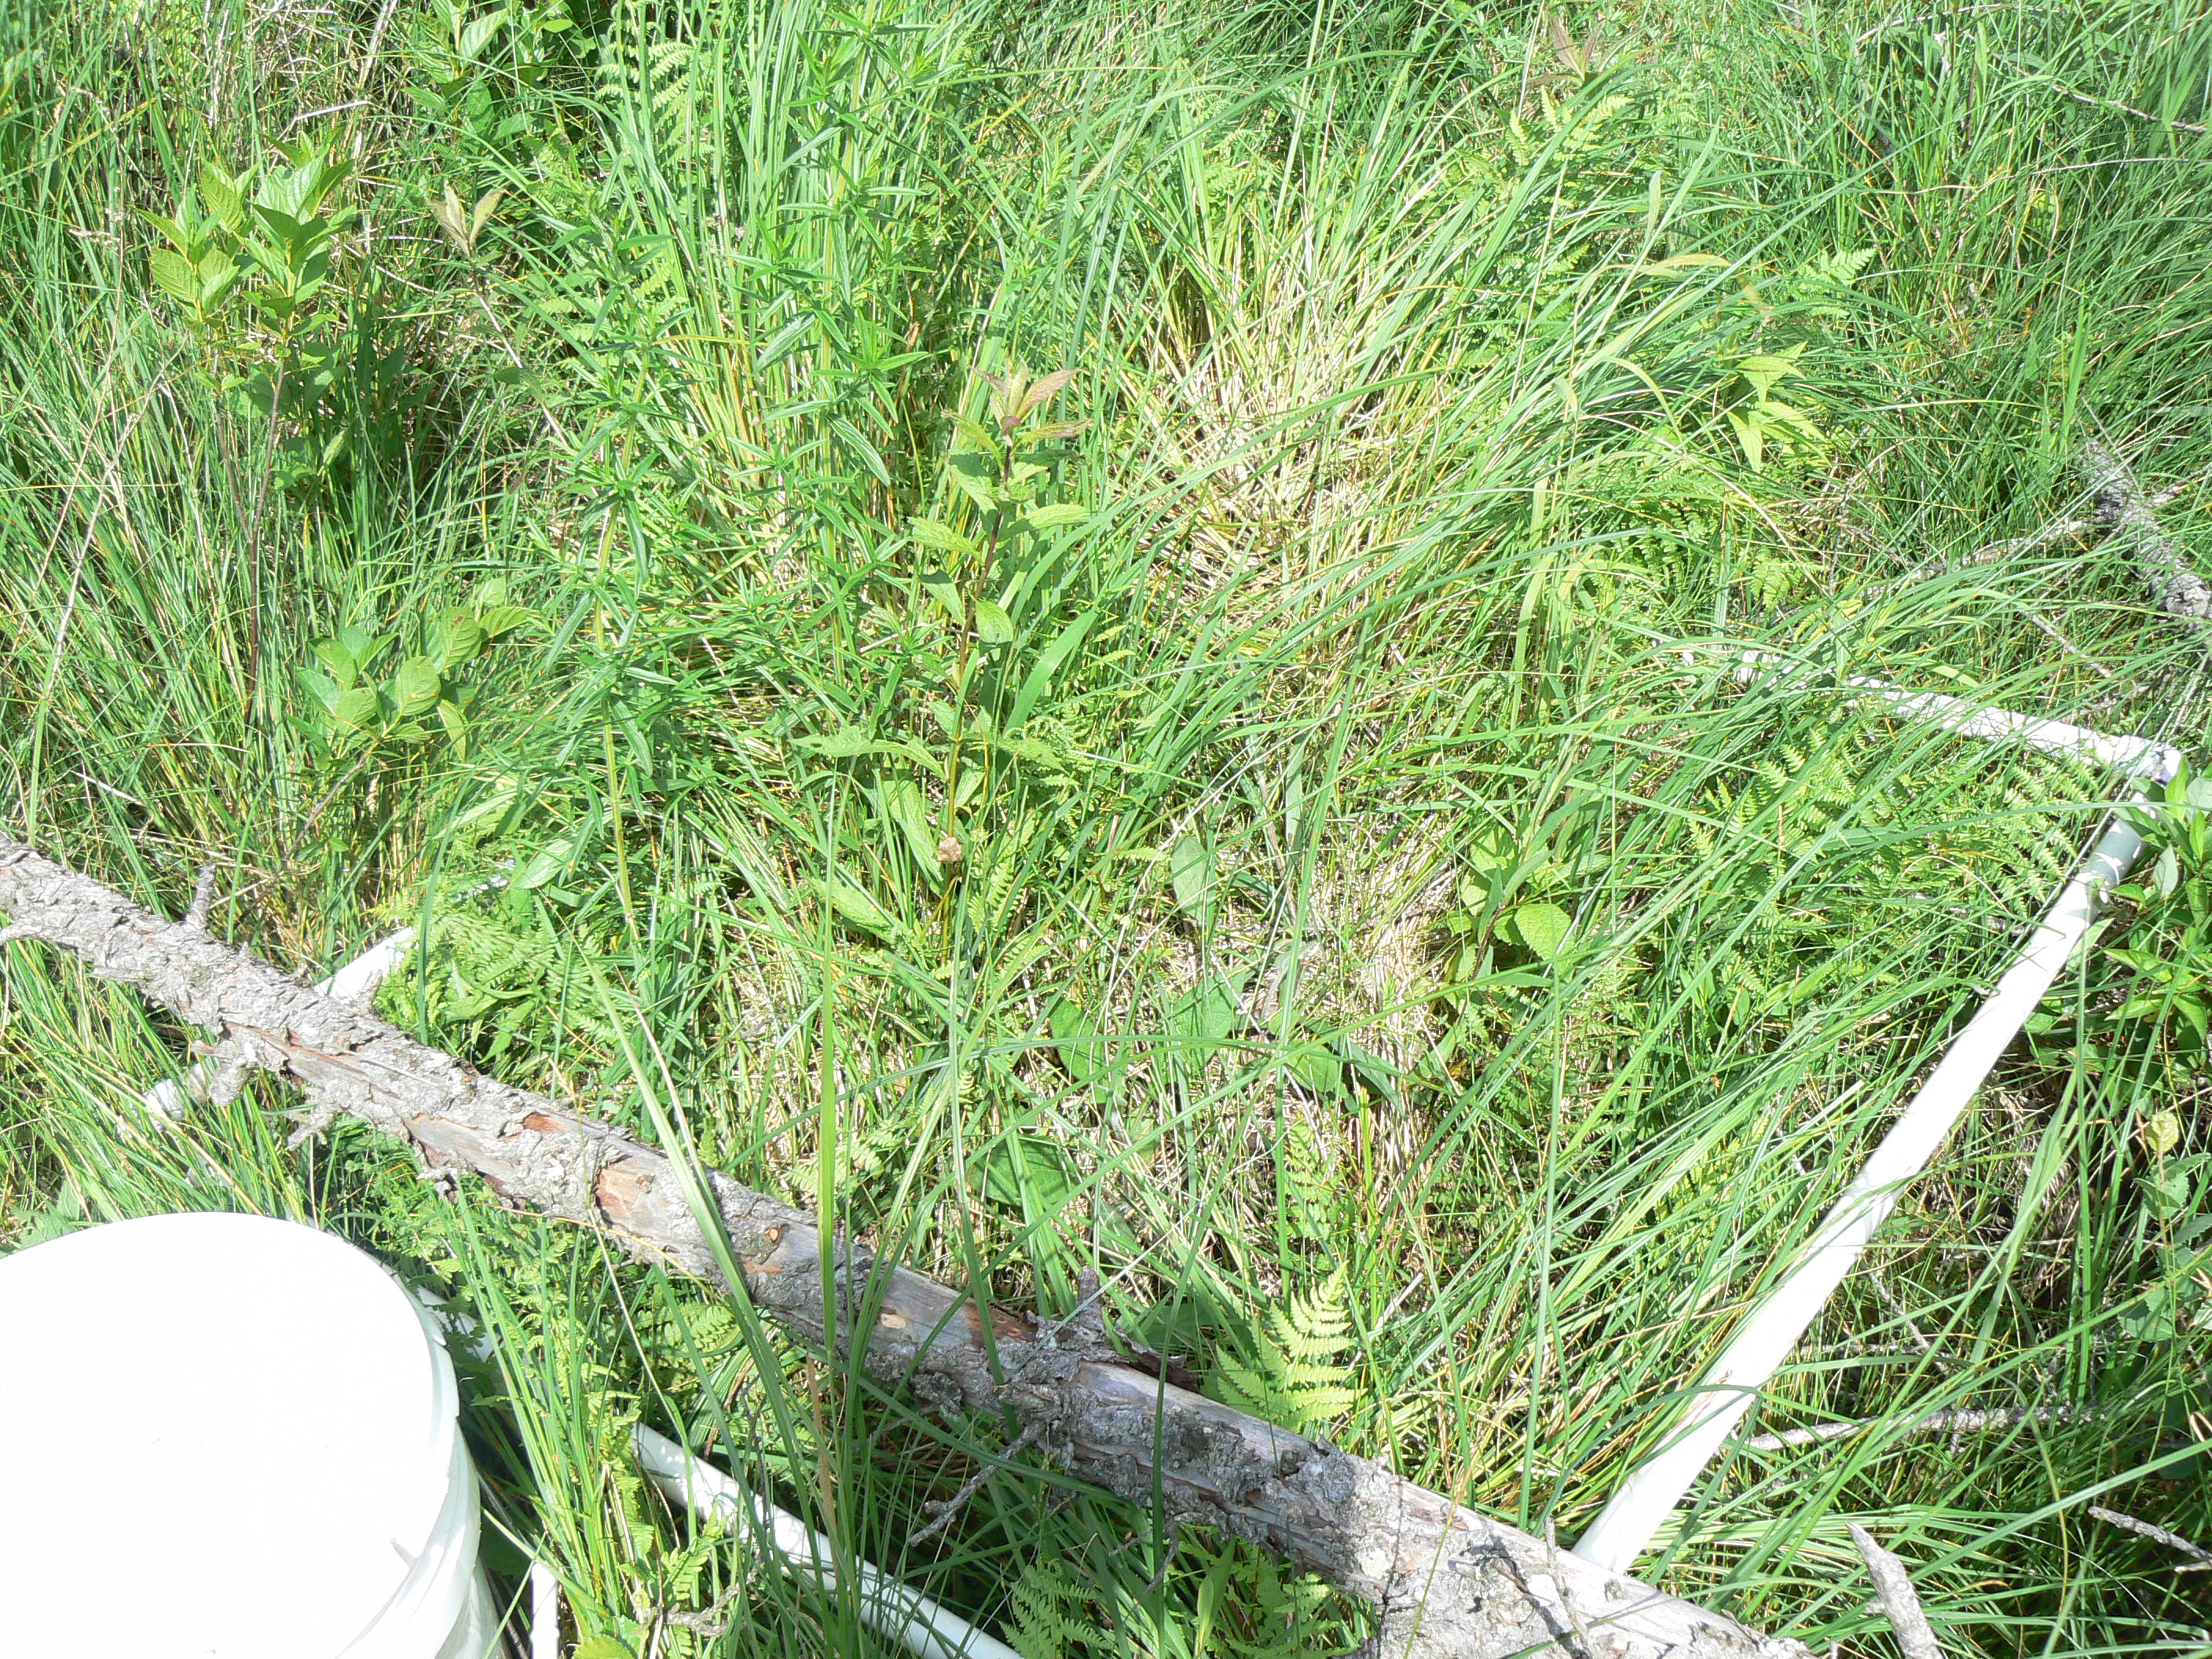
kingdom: Plantae
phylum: Tracheophyta
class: Liliopsida
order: Poales
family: Cyperaceae
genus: Carex
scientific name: Carex leptalea
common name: Bristly-stalked sedge
